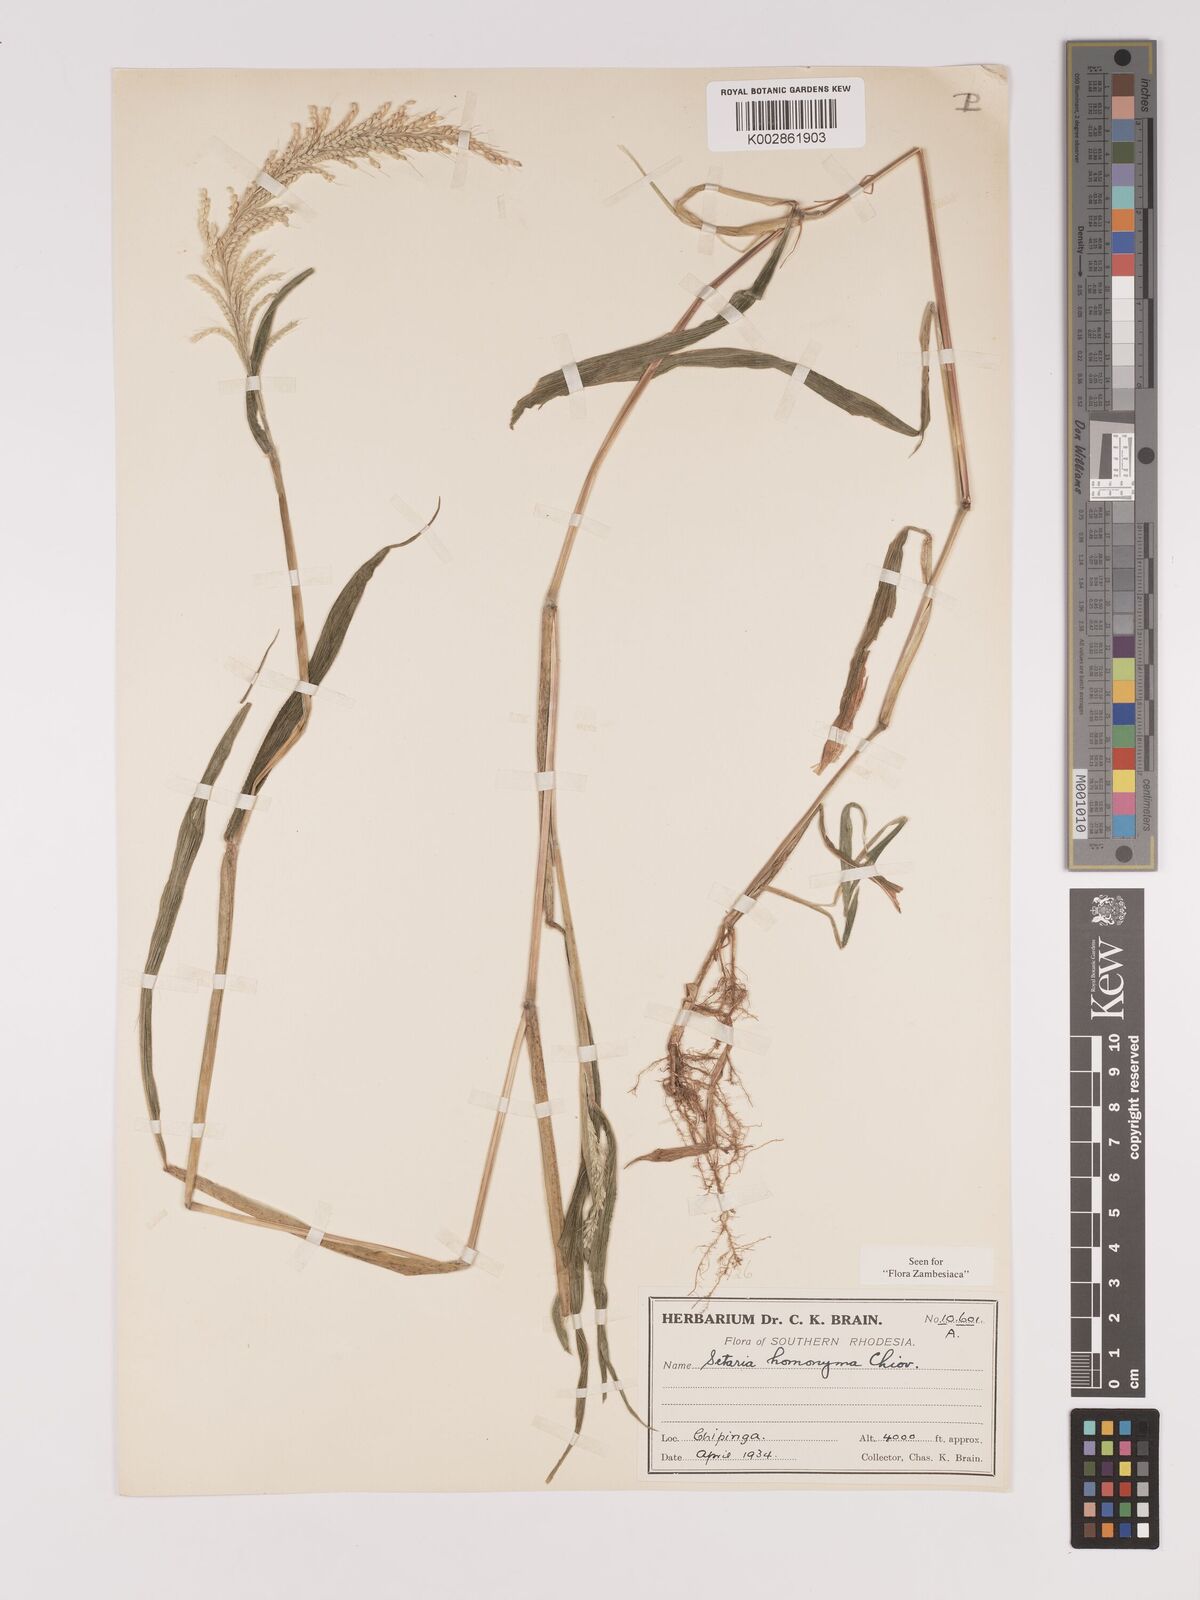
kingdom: Plantae
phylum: Tracheophyta
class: Liliopsida
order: Poales
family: Poaceae
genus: Setaria
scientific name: Setaria homonyma
